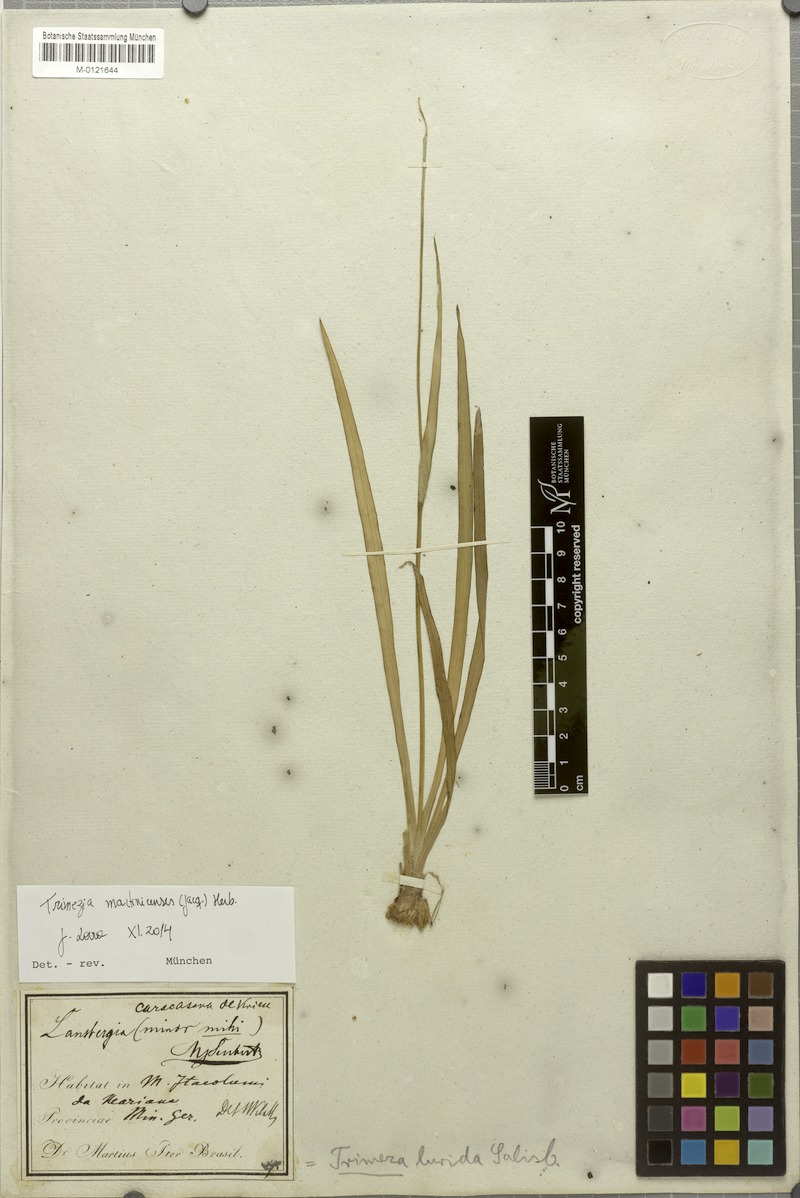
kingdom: Plantae
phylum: Tracheophyta
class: Liliopsida
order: Asparagales
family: Iridaceae
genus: Trimezia
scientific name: Trimezia martinicensis
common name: Martinique trimezia
